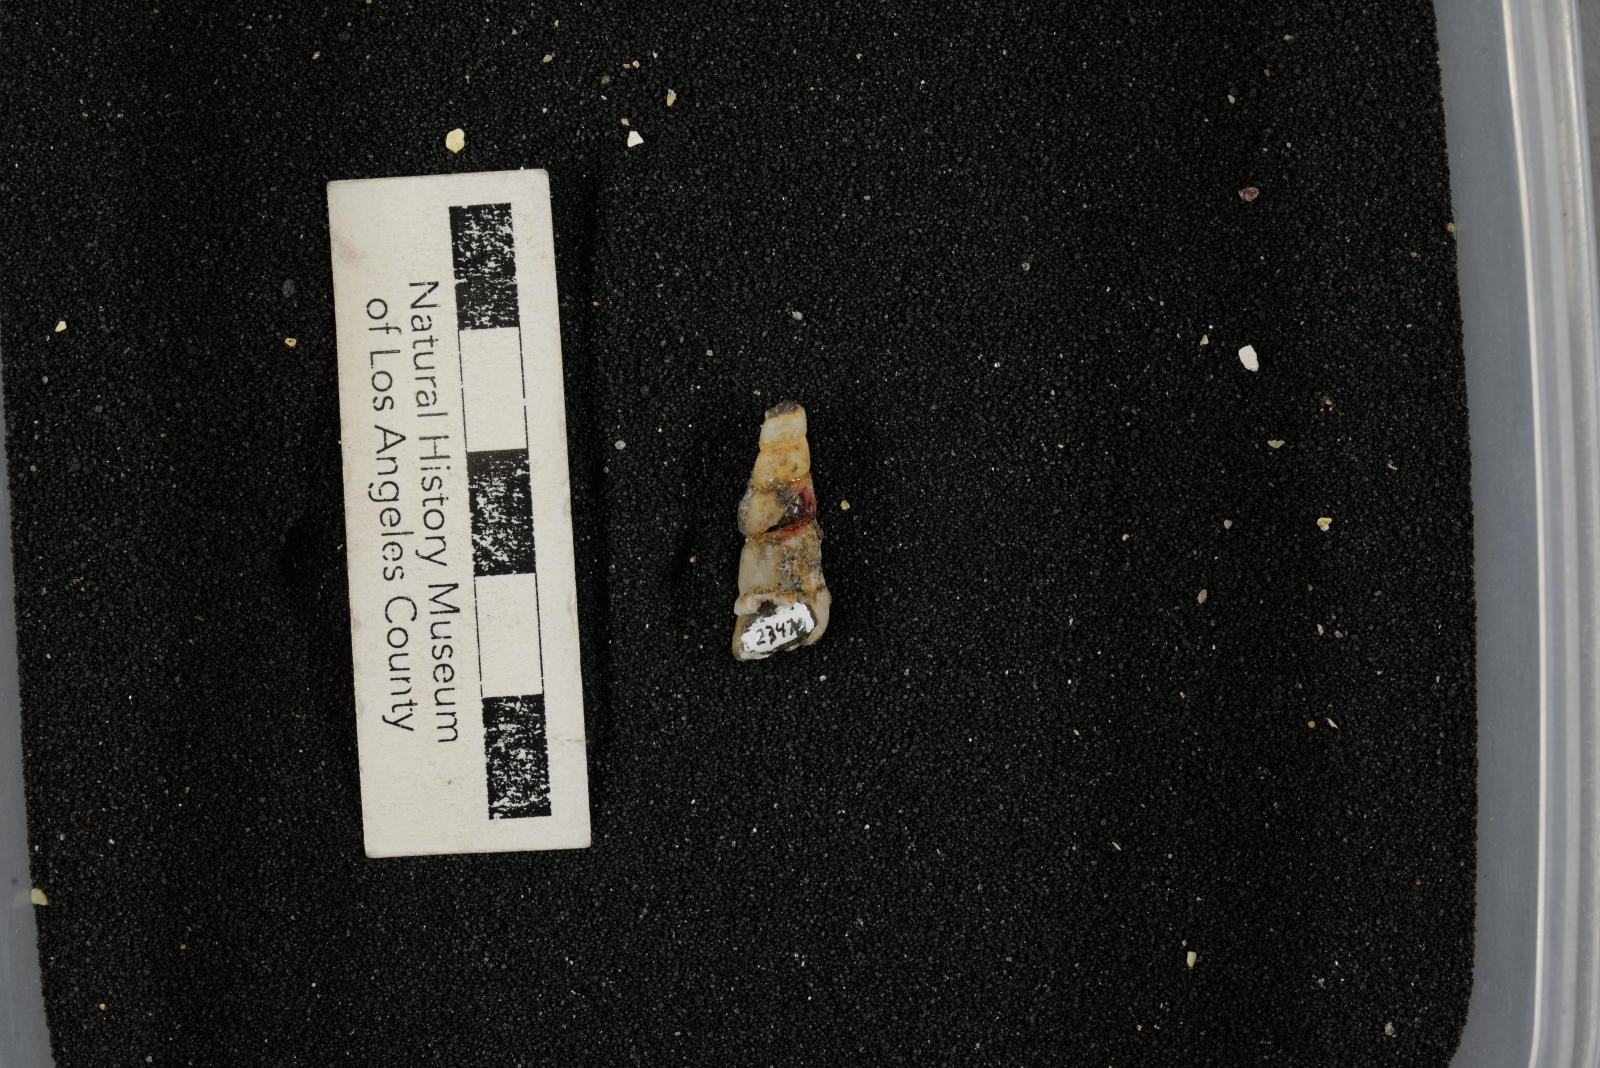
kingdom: Animalia
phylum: Mollusca
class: Gastropoda
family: Turritellidae
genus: Turritella
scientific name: Turritella xylina
